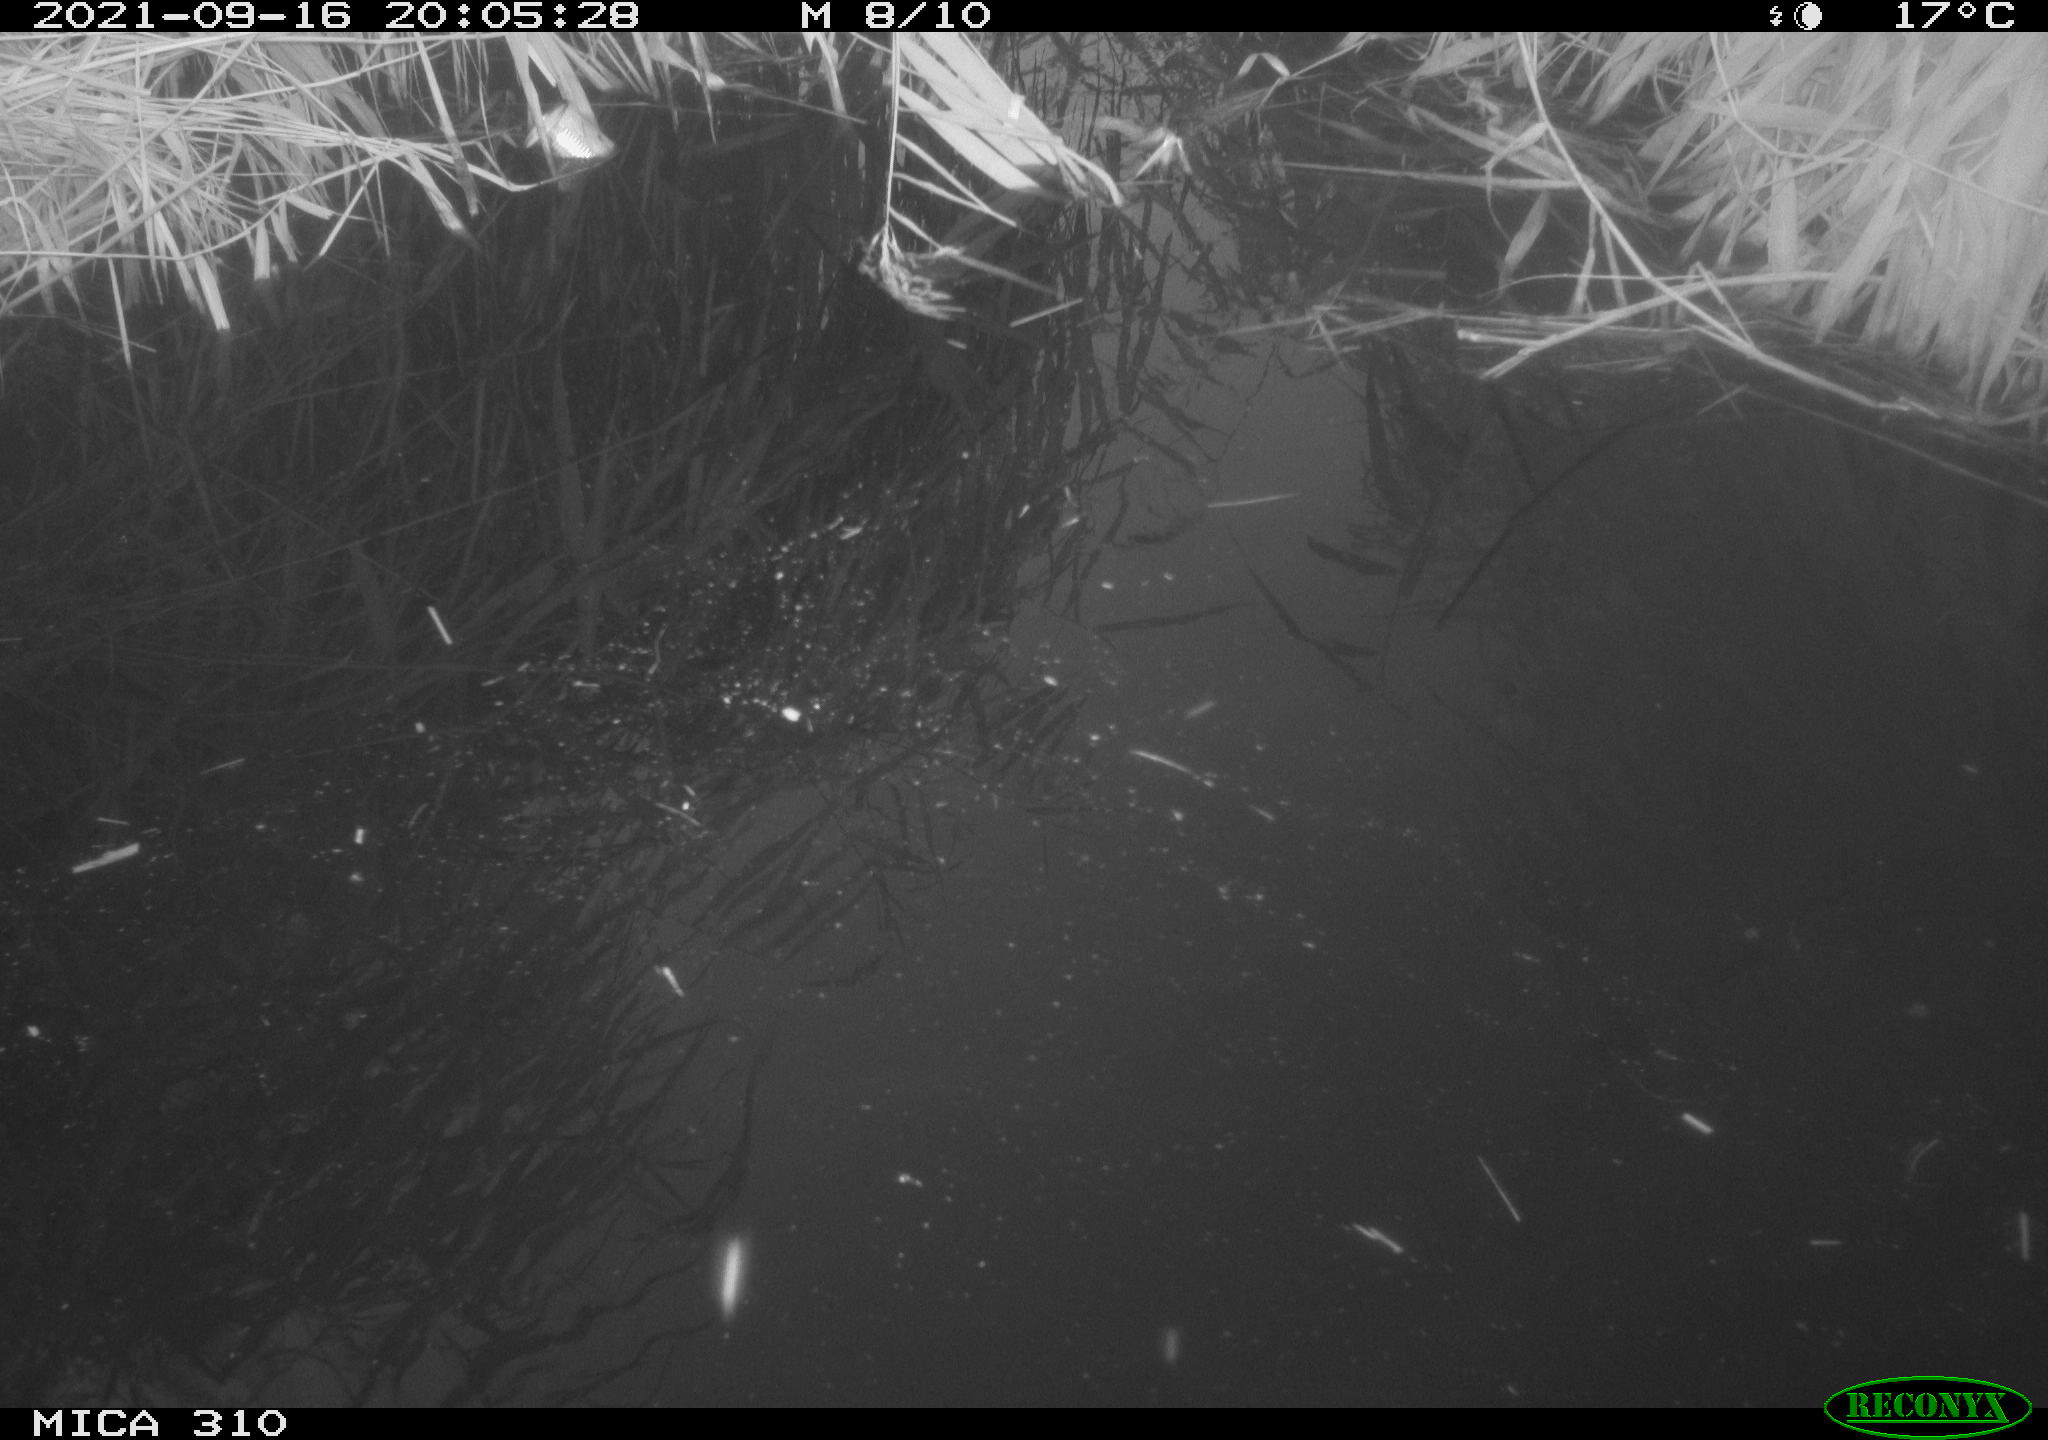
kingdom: Animalia
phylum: Chordata
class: Aves
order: Gruiformes
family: Rallidae
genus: Gallinula
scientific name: Gallinula chloropus
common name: Common moorhen
